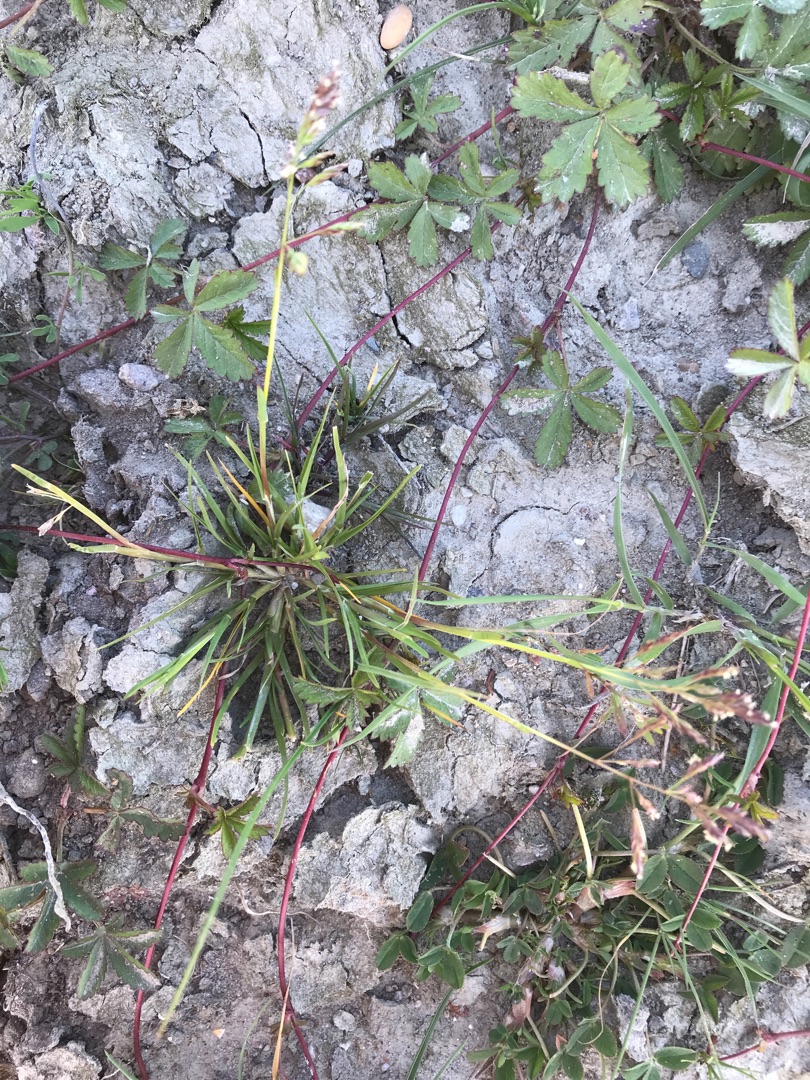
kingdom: Plantae
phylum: Tracheophyta
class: Liliopsida
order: Poales
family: Poaceae
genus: Poa
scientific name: Poa annua
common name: Enårig rapgræs
